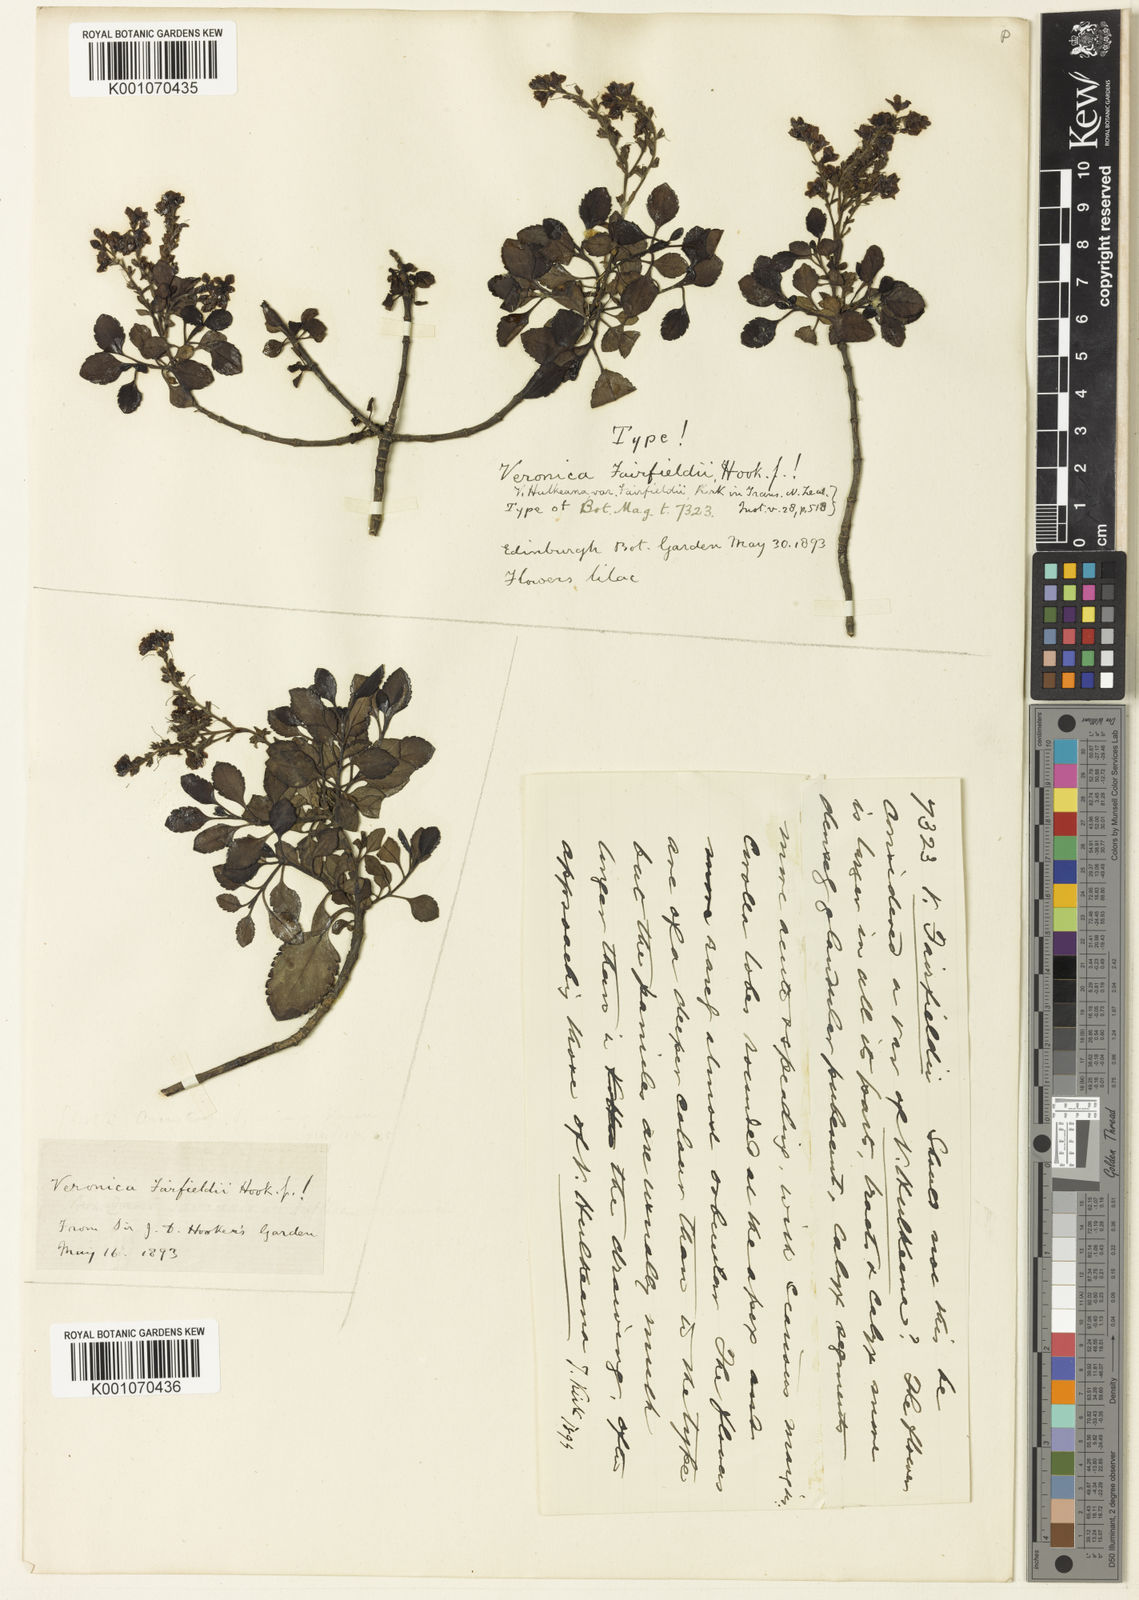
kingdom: Plantae
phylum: Tracheophyta
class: Magnoliopsida
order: Lamiales
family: Plantaginaceae
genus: Veronica
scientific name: Veronica
